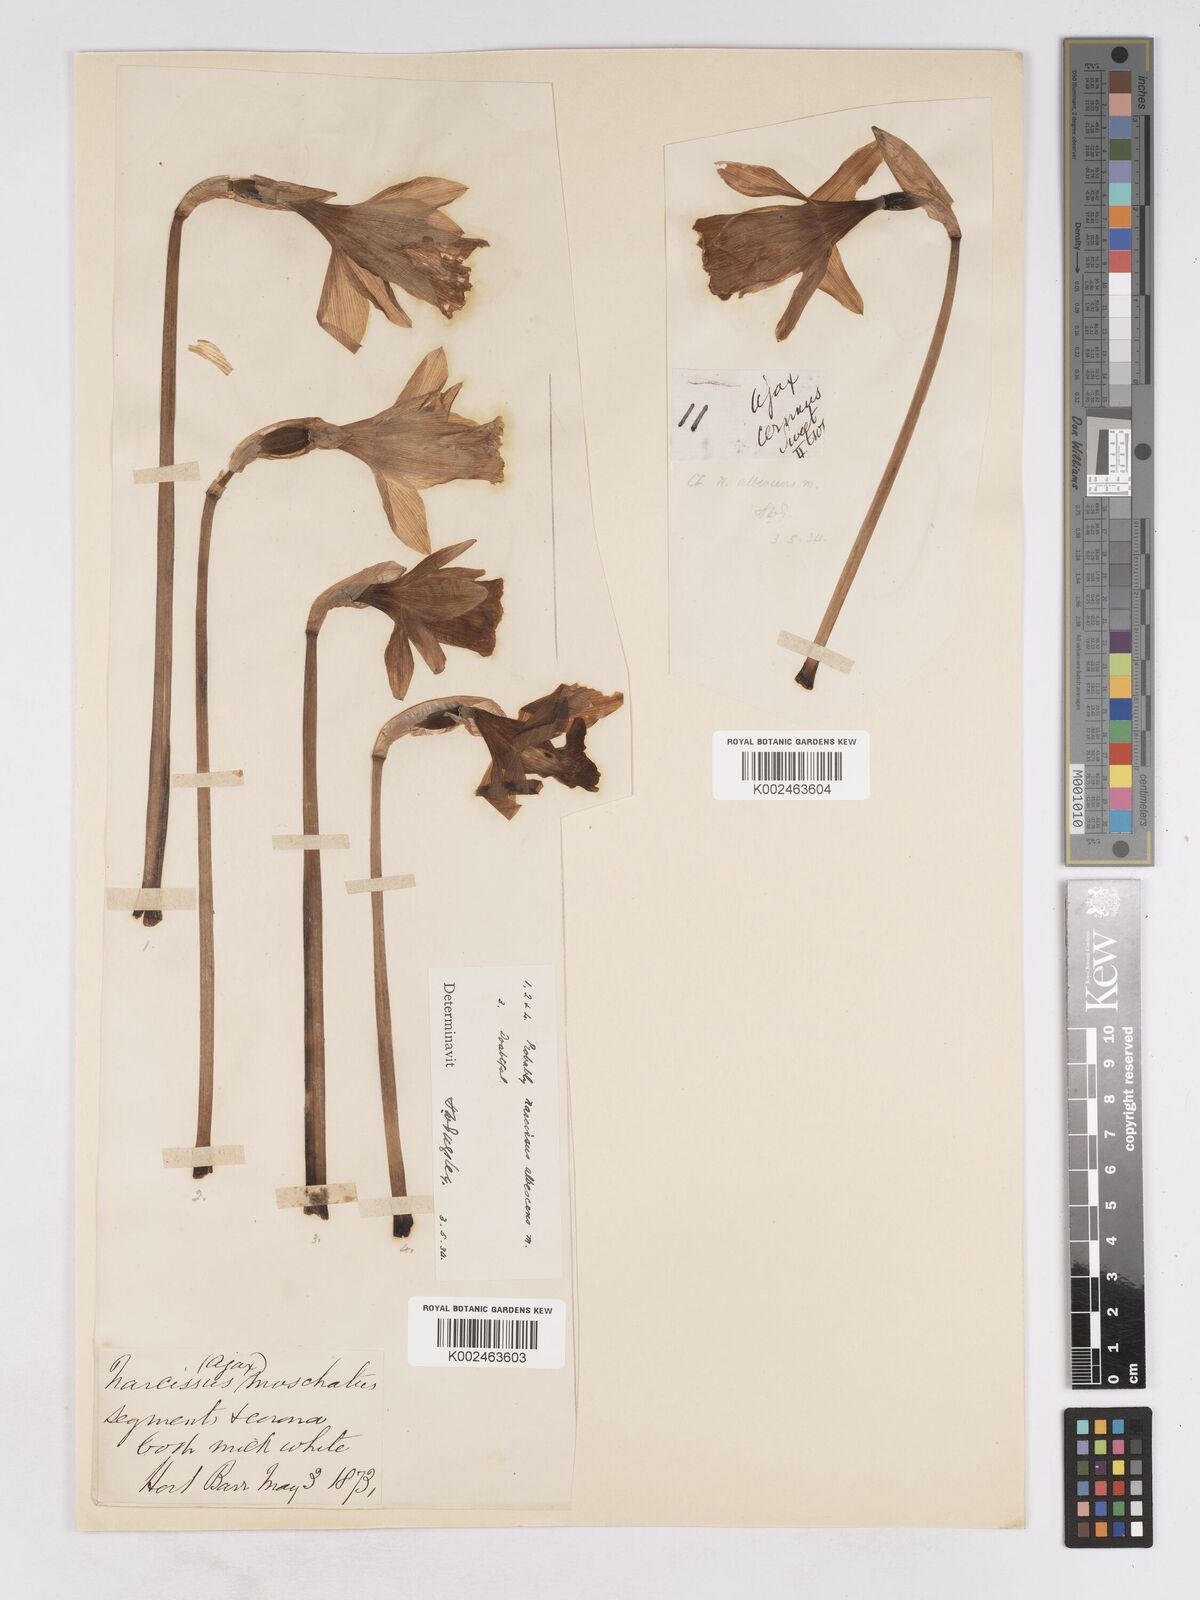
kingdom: Plantae
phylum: Tracheophyta
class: Liliopsida
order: Asparagales
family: Amaryllidaceae
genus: Narcissus
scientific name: Narcissus pallidiflorus
